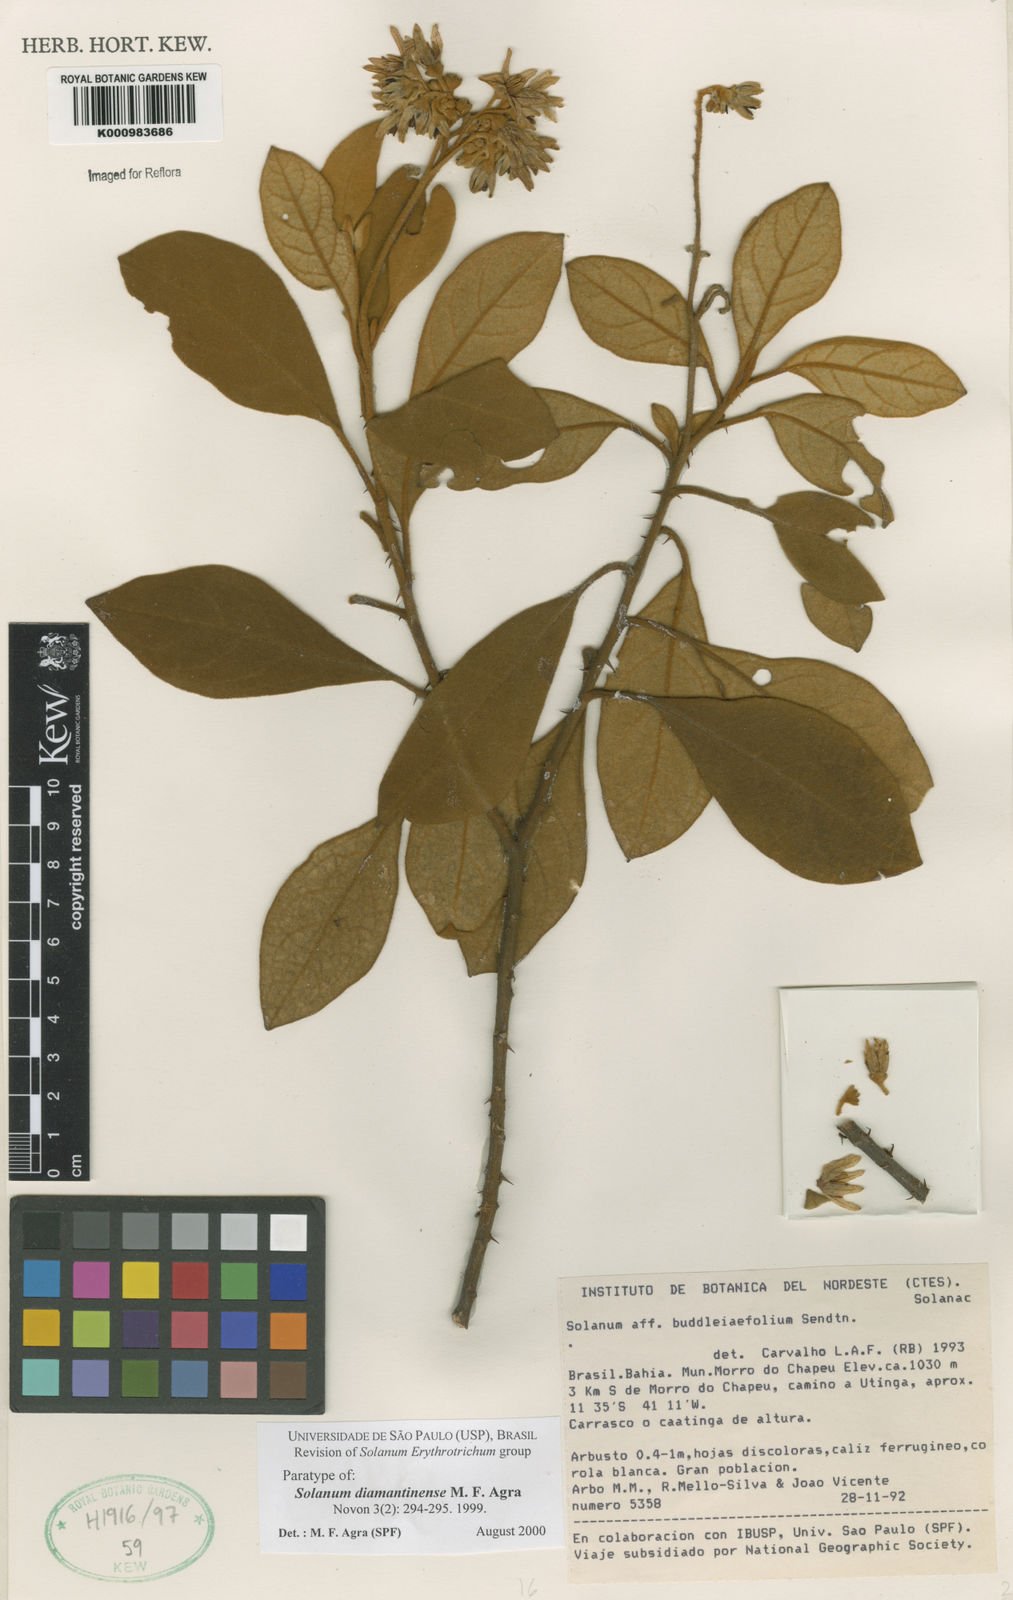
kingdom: Plantae
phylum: Tracheophyta
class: Magnoliopsida
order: Solanales
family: Solanaceae
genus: Solanum
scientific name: Solanum diamantinense
